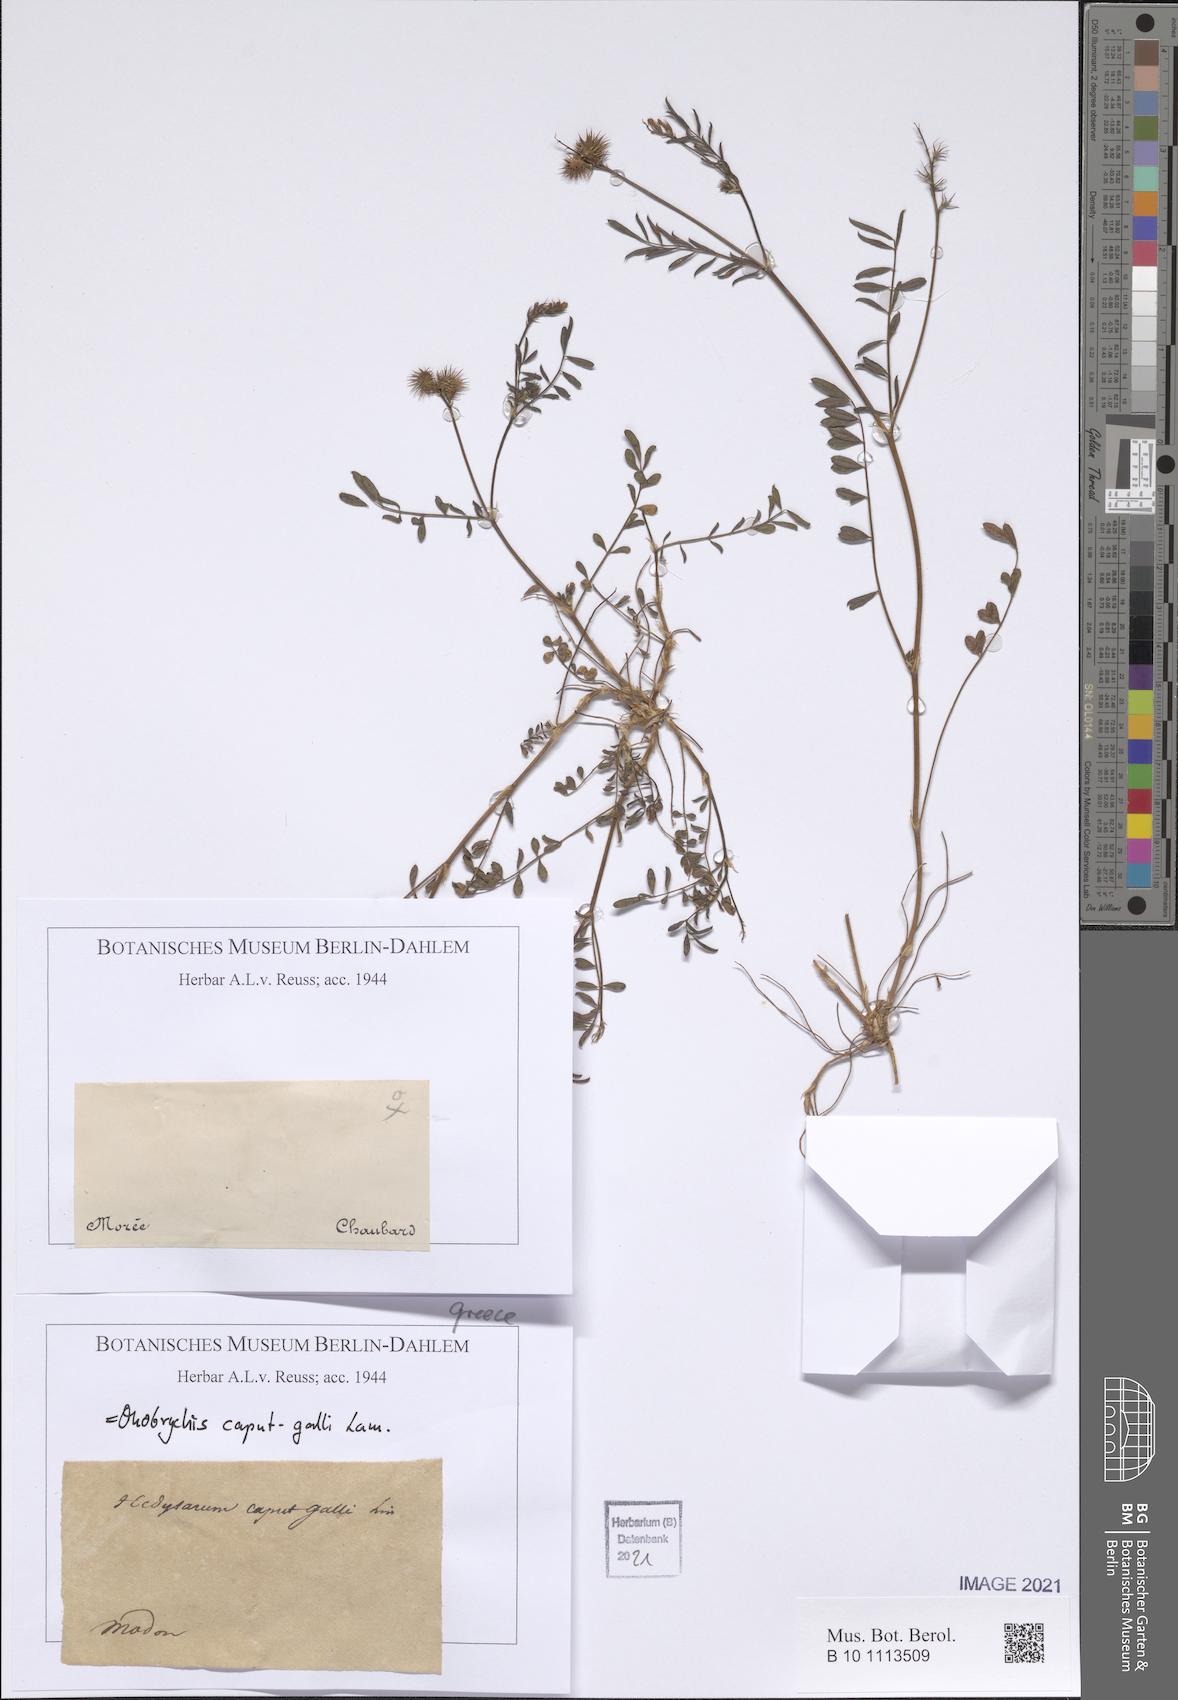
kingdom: Plantae
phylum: Tracheophyta
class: Magnoliopsida
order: Fabales
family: Fabaceae
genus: Onobrychis
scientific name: Onobrychis caput-galli
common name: Cockscomb sainfoin
